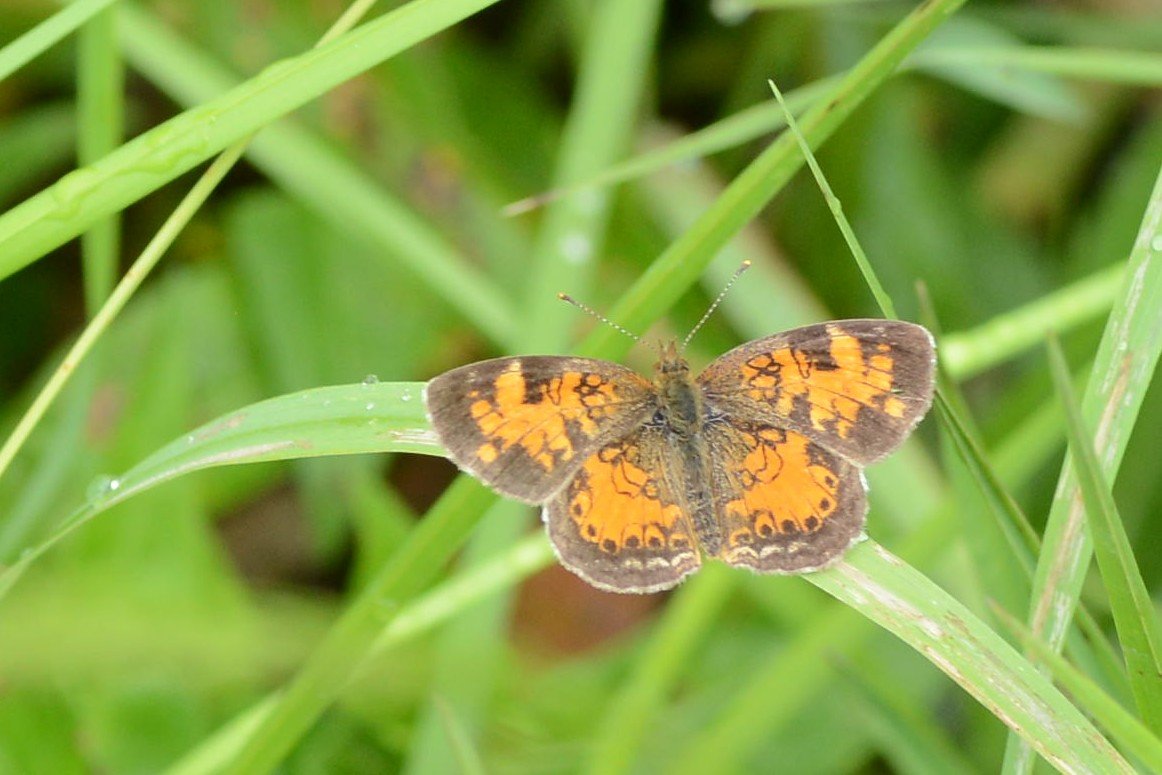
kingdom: Animalia
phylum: Arthropoda
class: Insecta
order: Lepidoptera
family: Nymphalidae
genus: Phyciodes
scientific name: Phyciodes tharos
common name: Northern Crescent
